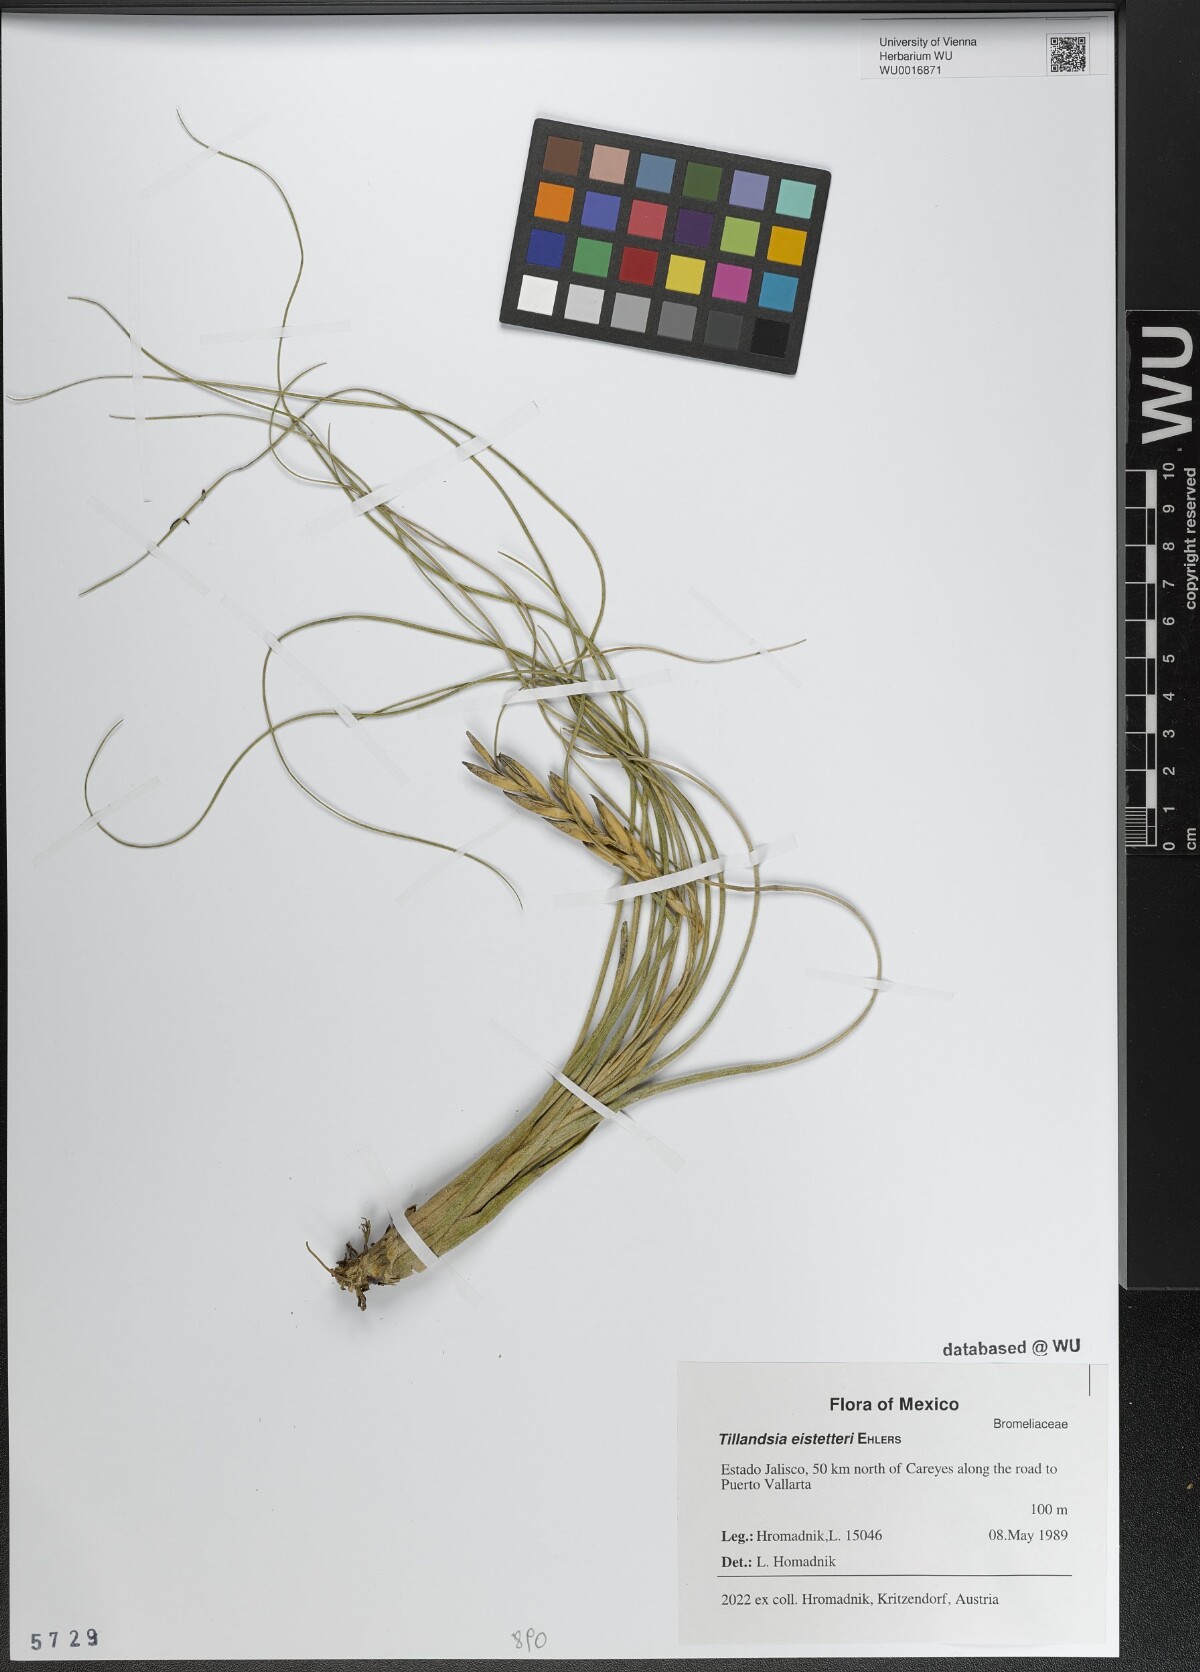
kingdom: Plantae
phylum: Tracheophyta
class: Liliopsida
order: Poales
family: Bromeliaceae
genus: Tillandsia
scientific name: Tillandsia eistetteri
